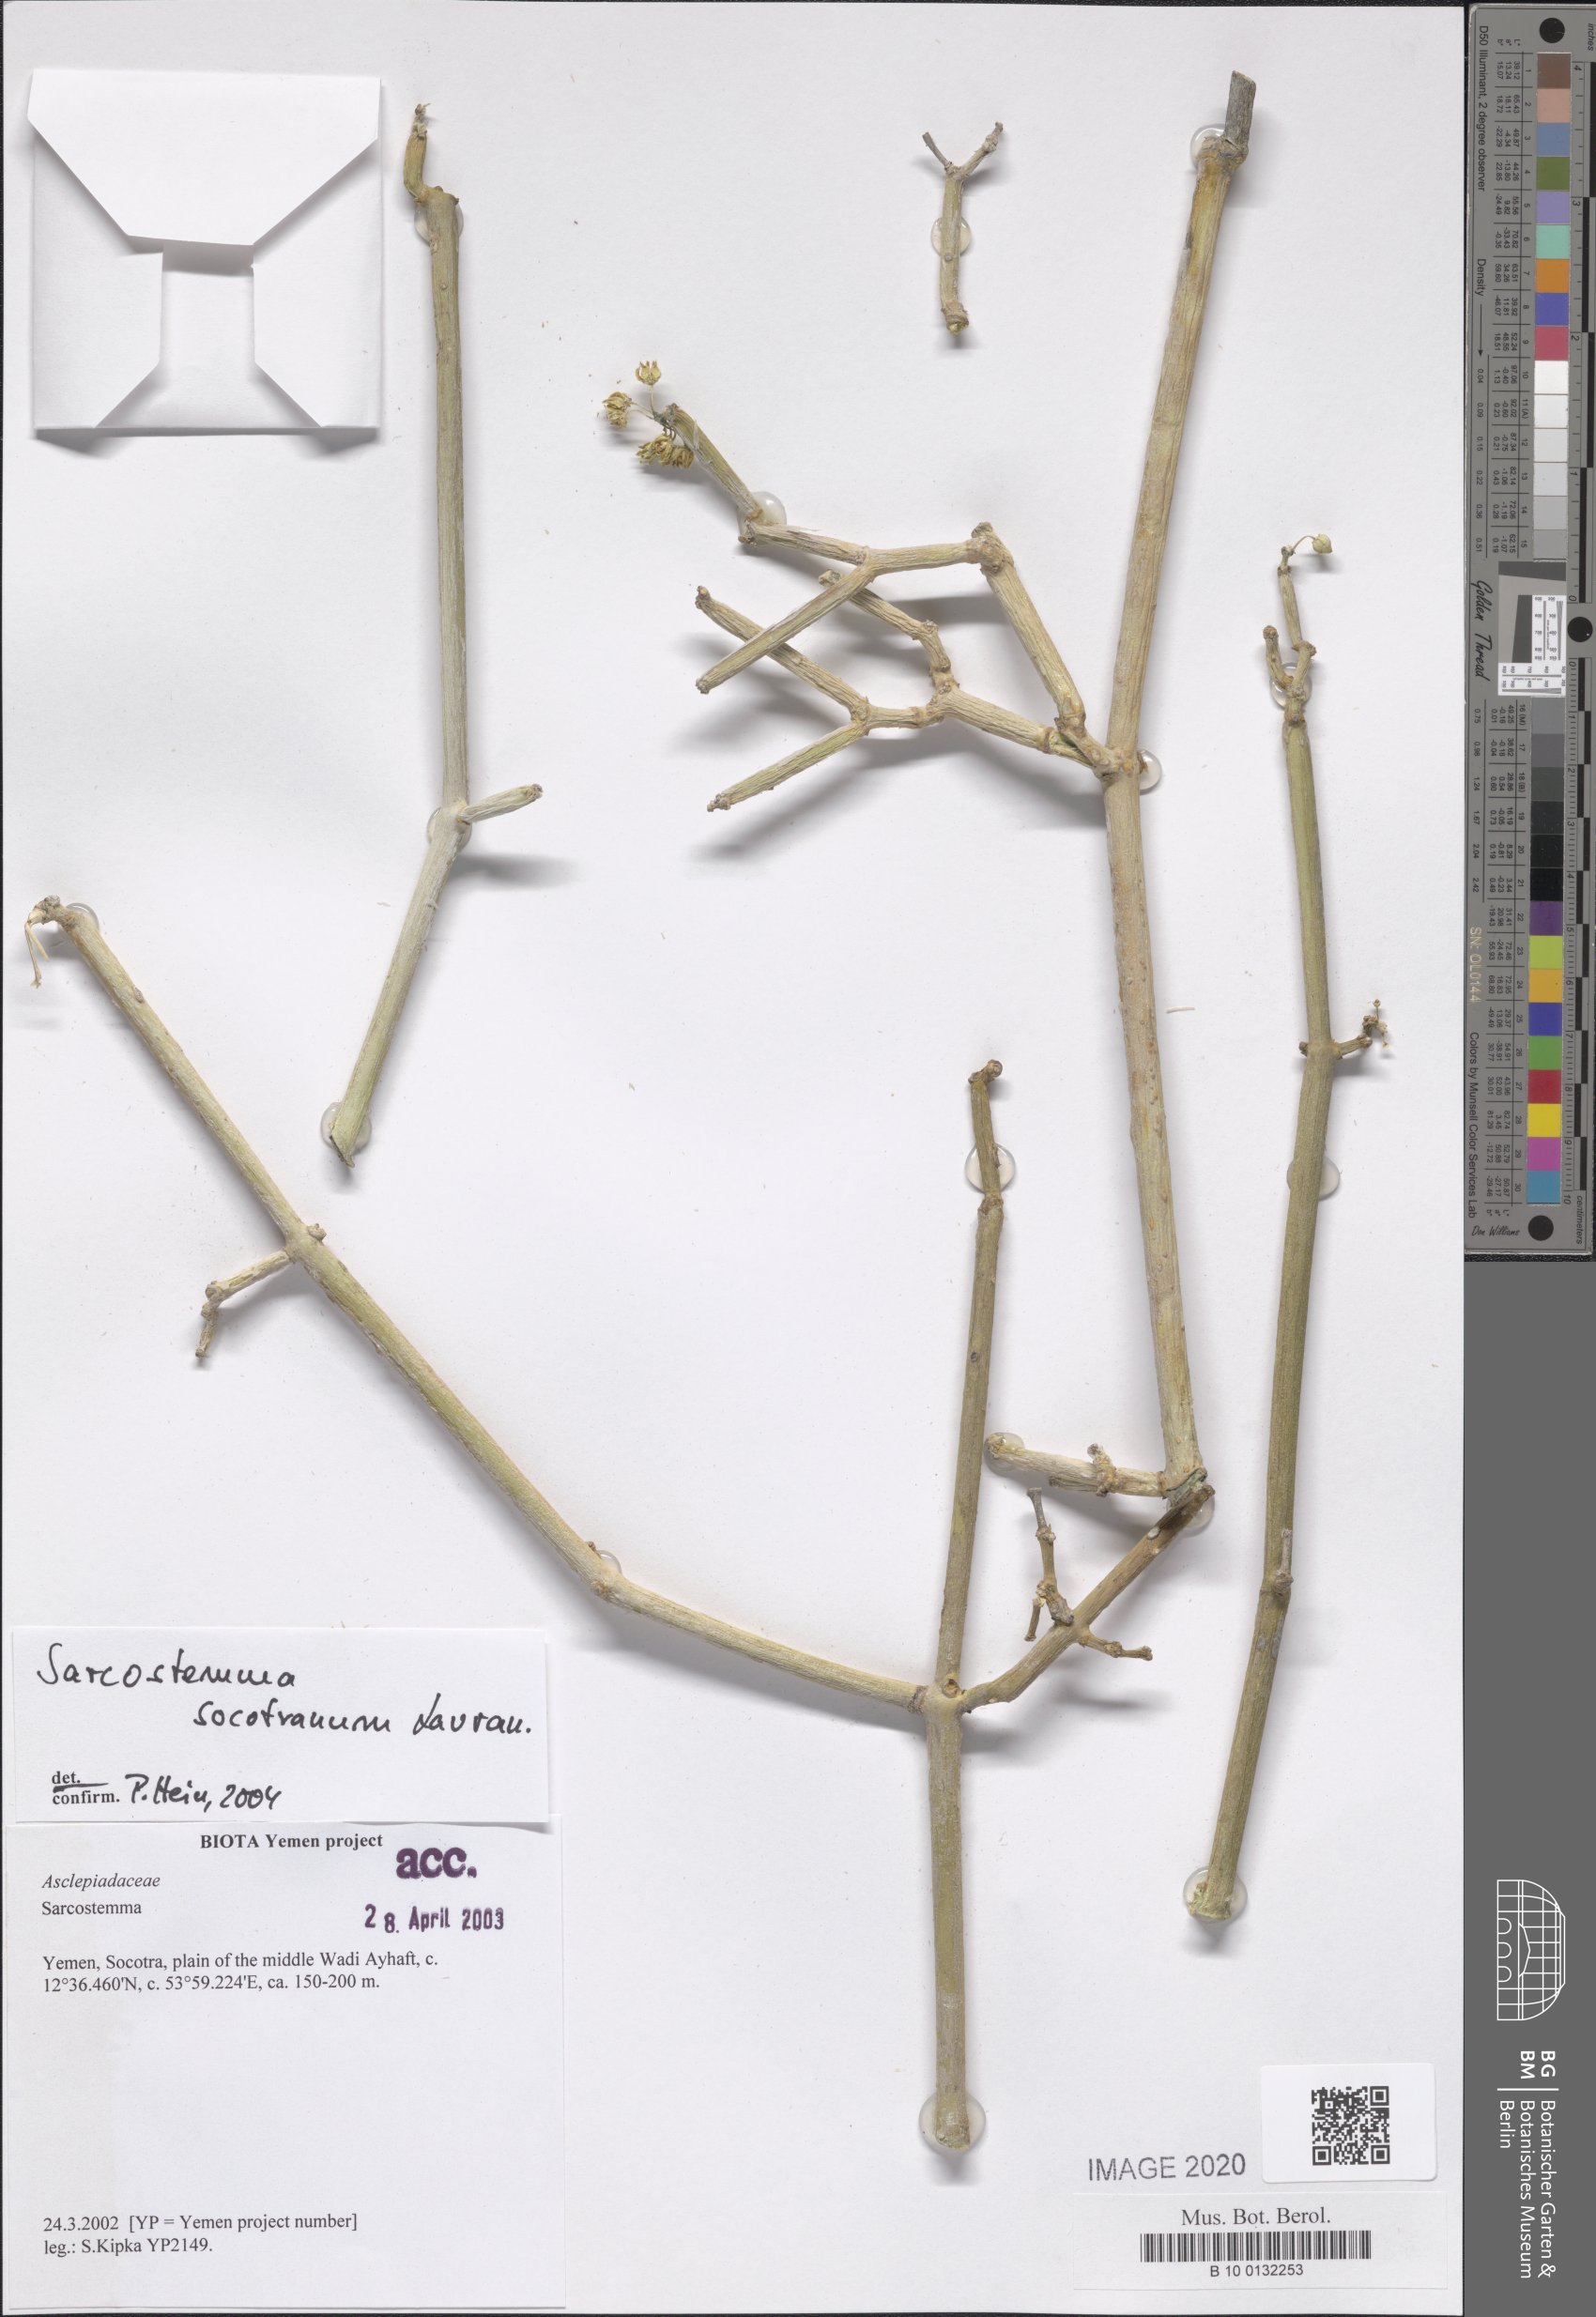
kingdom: Plantae
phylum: Tracheophyta
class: Magnoliopsida
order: Gentianales
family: Apocynaceae
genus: Cynanchum
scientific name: Cynanchum socotranum
